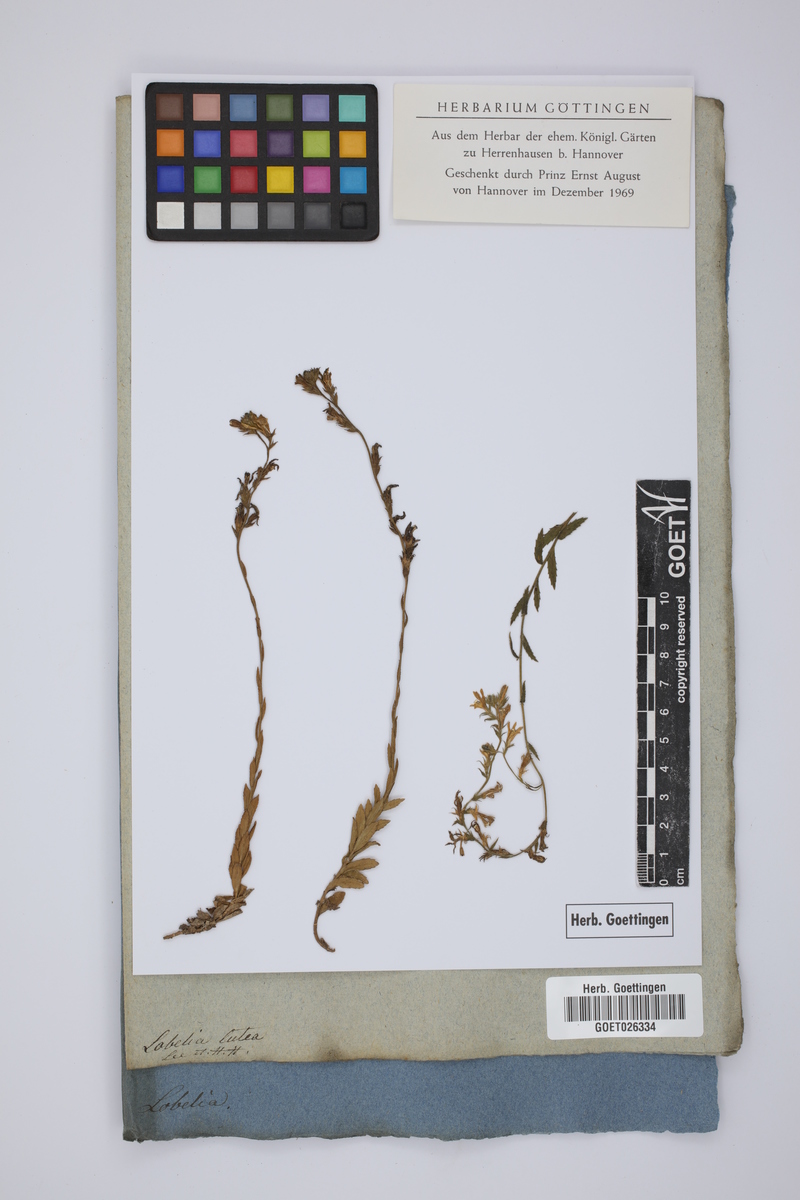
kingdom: Plantae
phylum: Tracheophyta
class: Magnoliopsida
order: Asterales
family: Campanulaceae
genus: Monopsis
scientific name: Monopsis lutea
